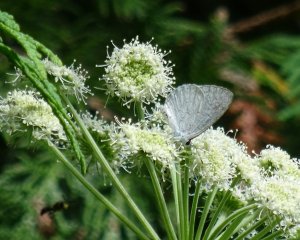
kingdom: Animalia
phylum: Arthropoda
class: Insecta
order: Lepidoptera
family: Lycaenidae
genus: Cyaniris
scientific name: Cyaniris neglecta
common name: Summer Azure
